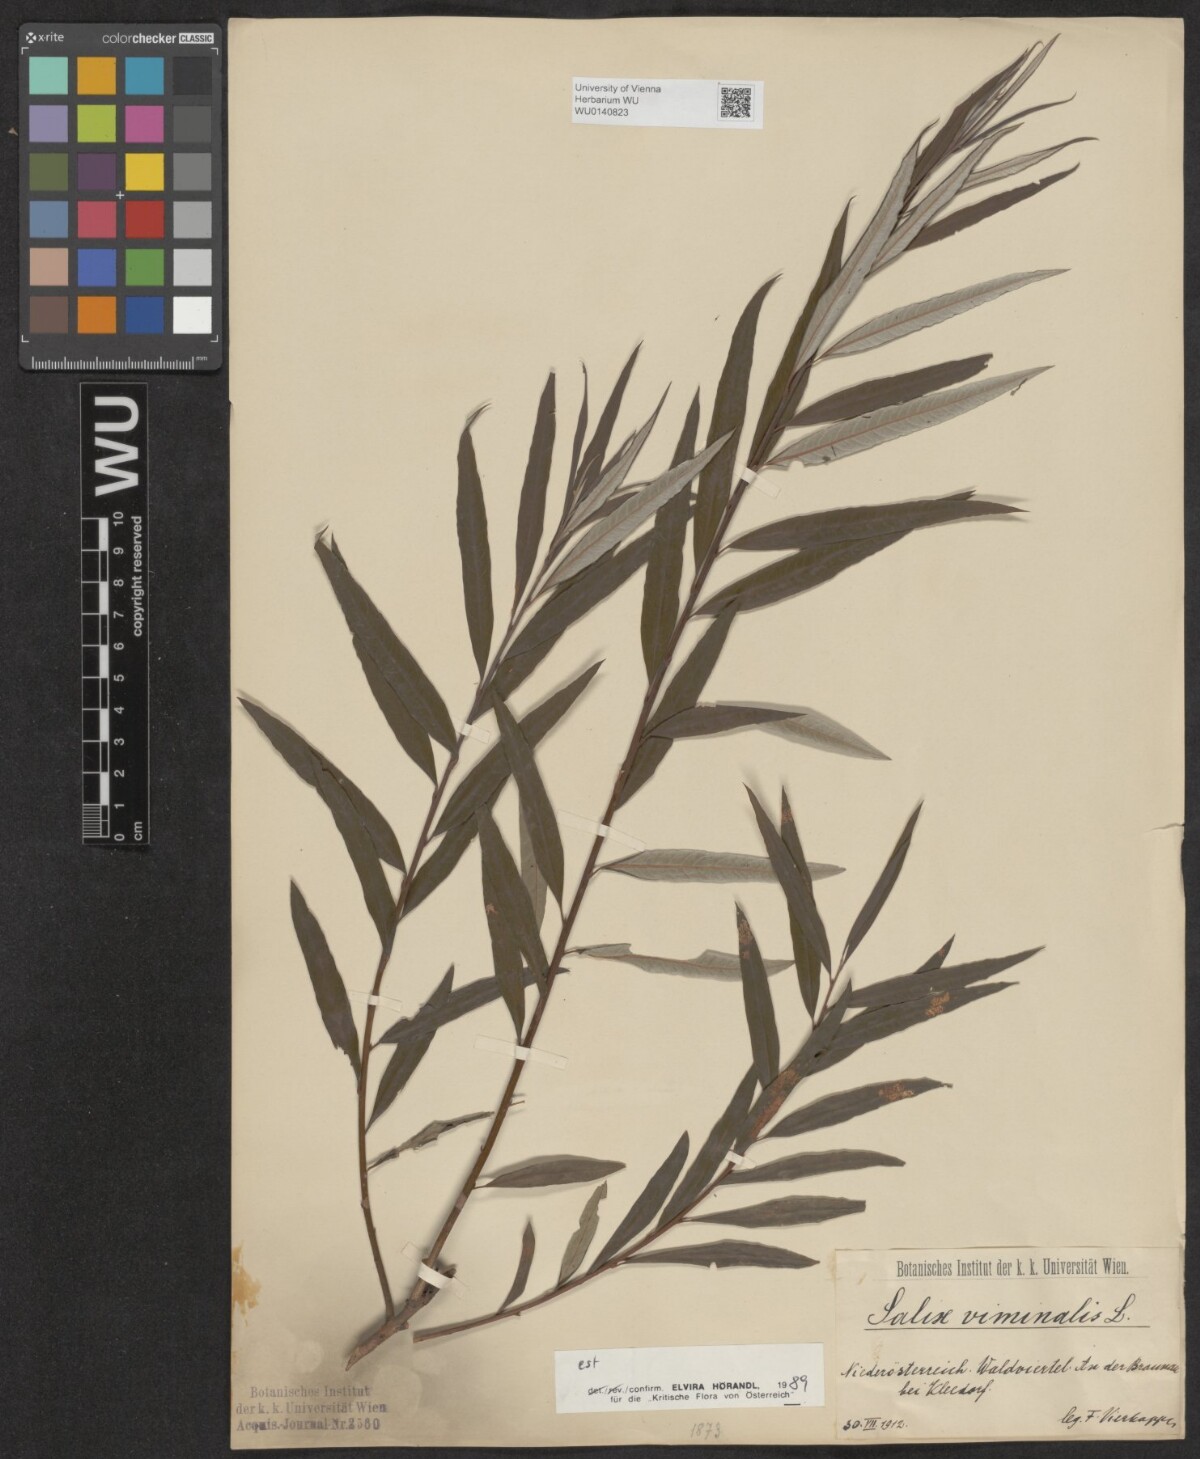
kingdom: Plantae
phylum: Tracheophyta
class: Magnoliopsida
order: Malpighiales
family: Salicaceae
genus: Salix
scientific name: Salix viminalis
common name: Osier
